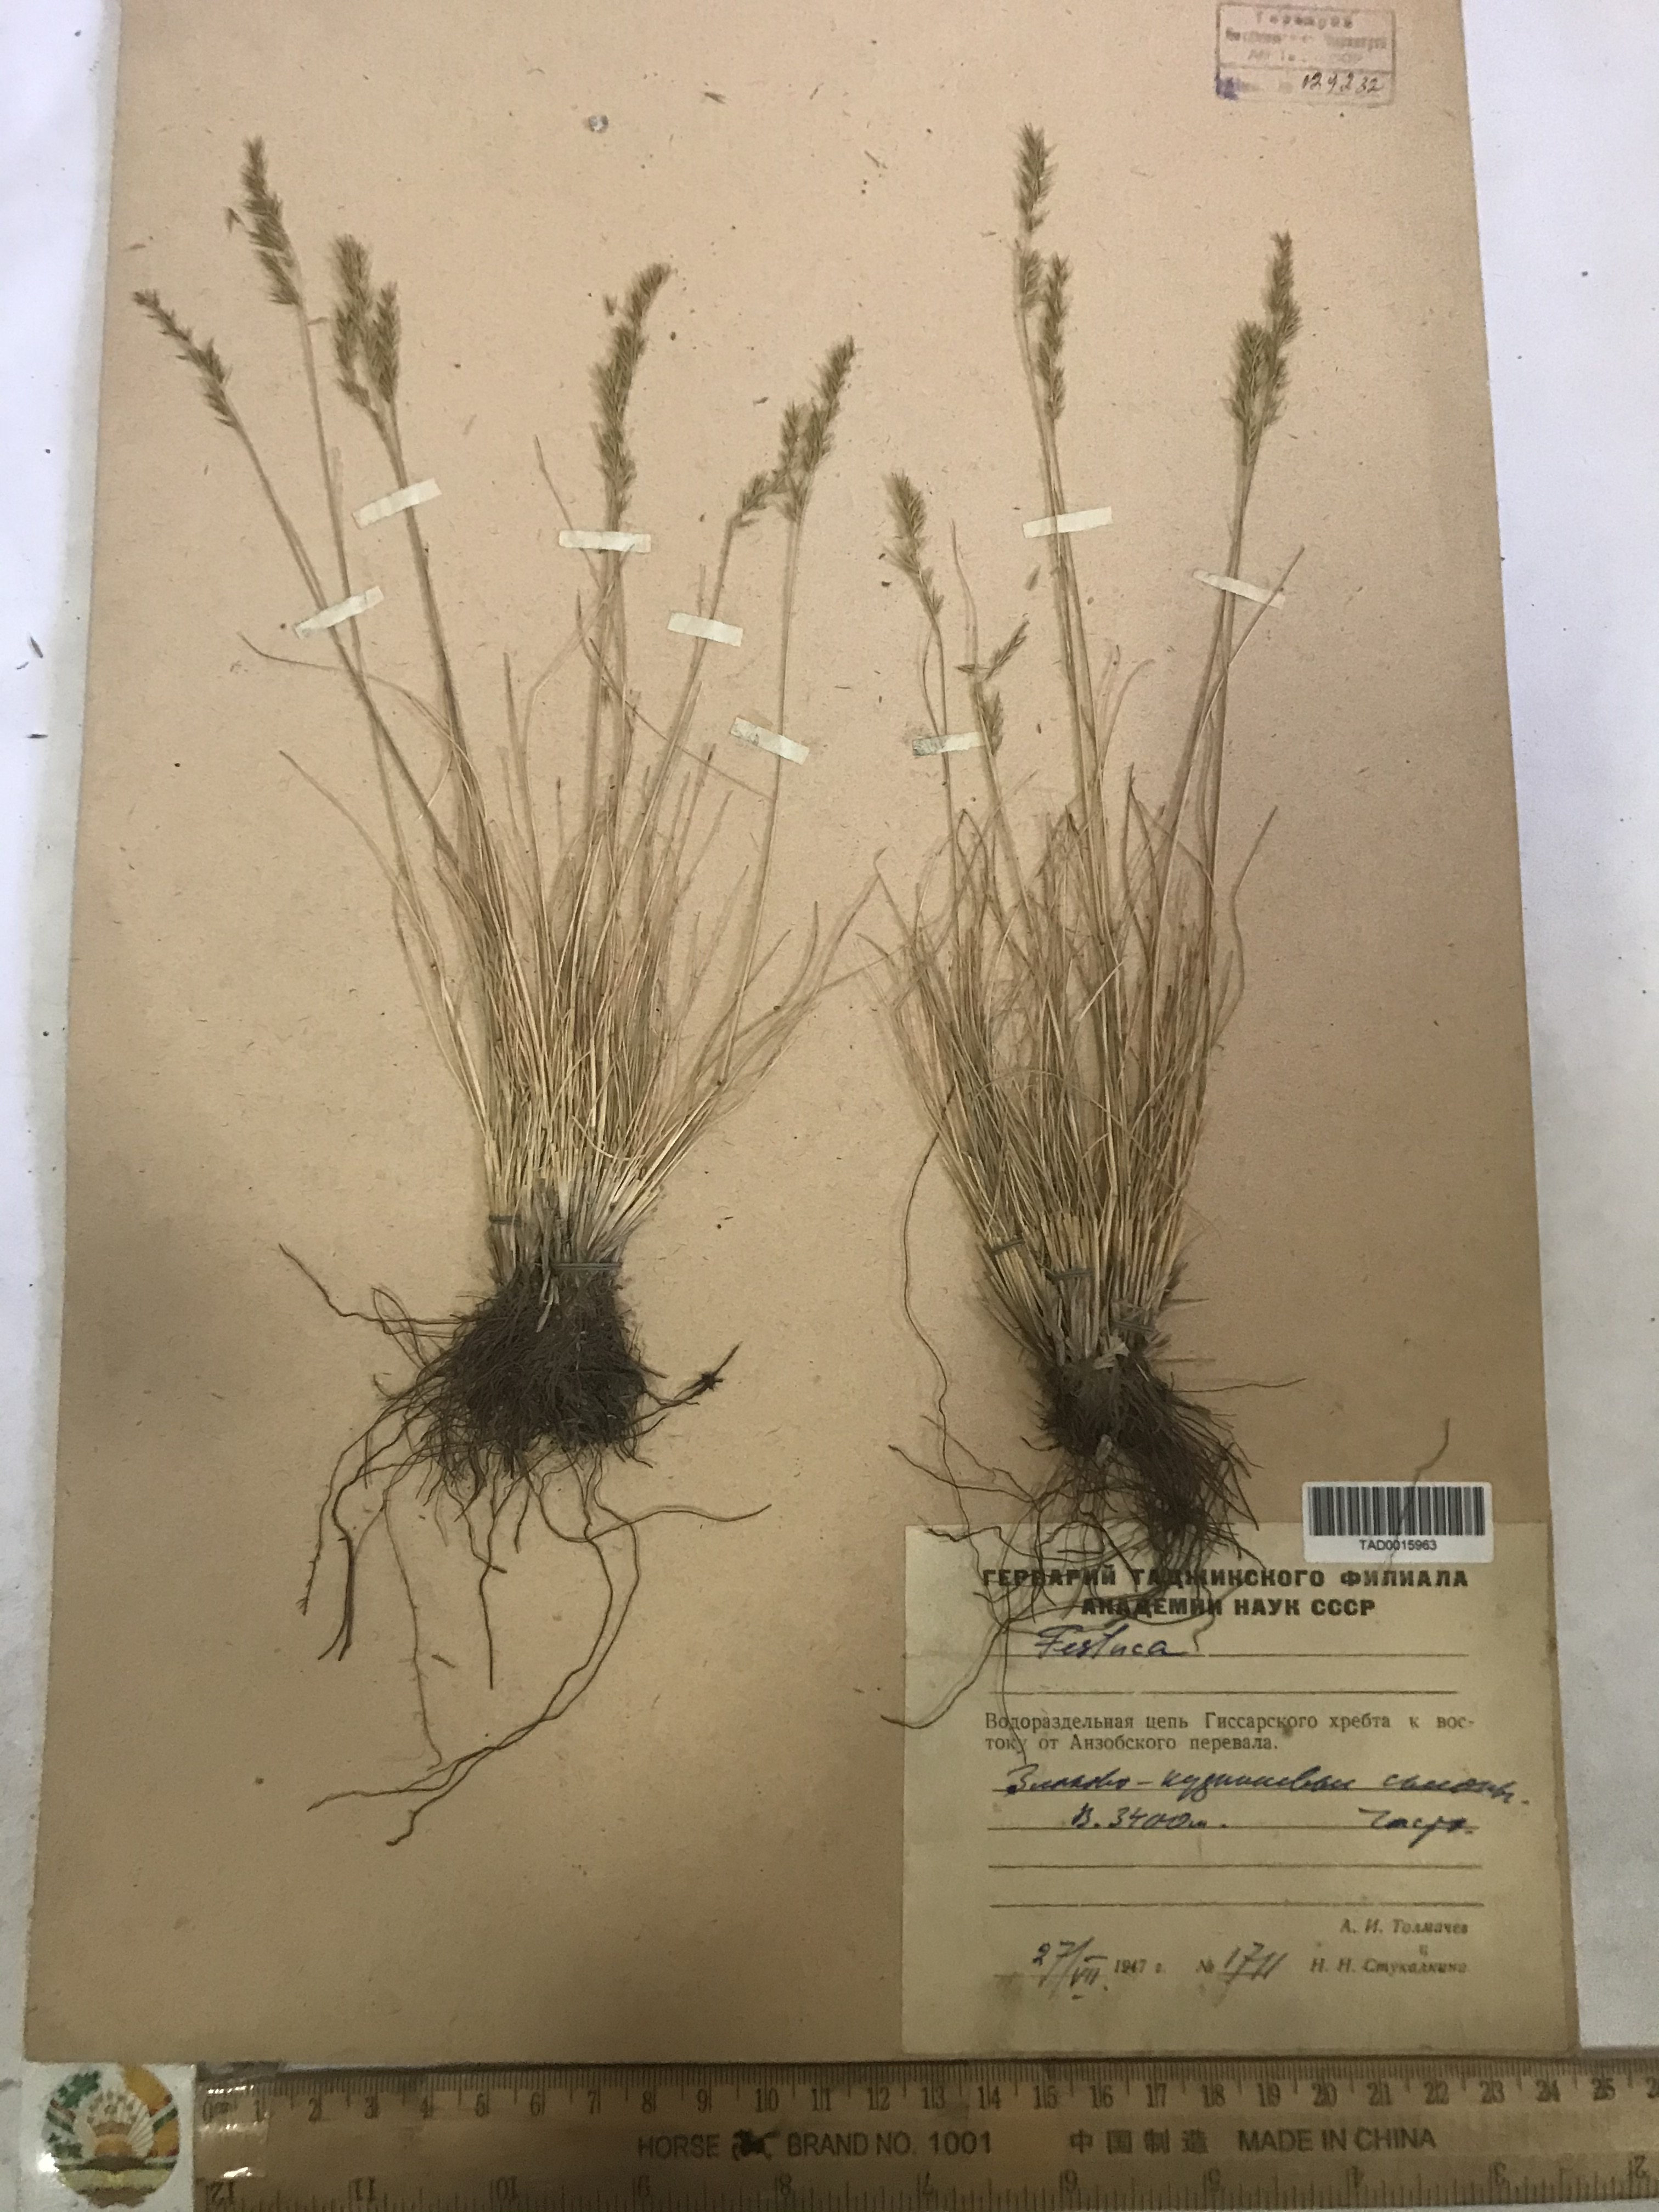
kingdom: Plantae
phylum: Tracheophyta
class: Liliopsida
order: Poales
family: Poaceae
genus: Festuca
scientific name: Festuca
